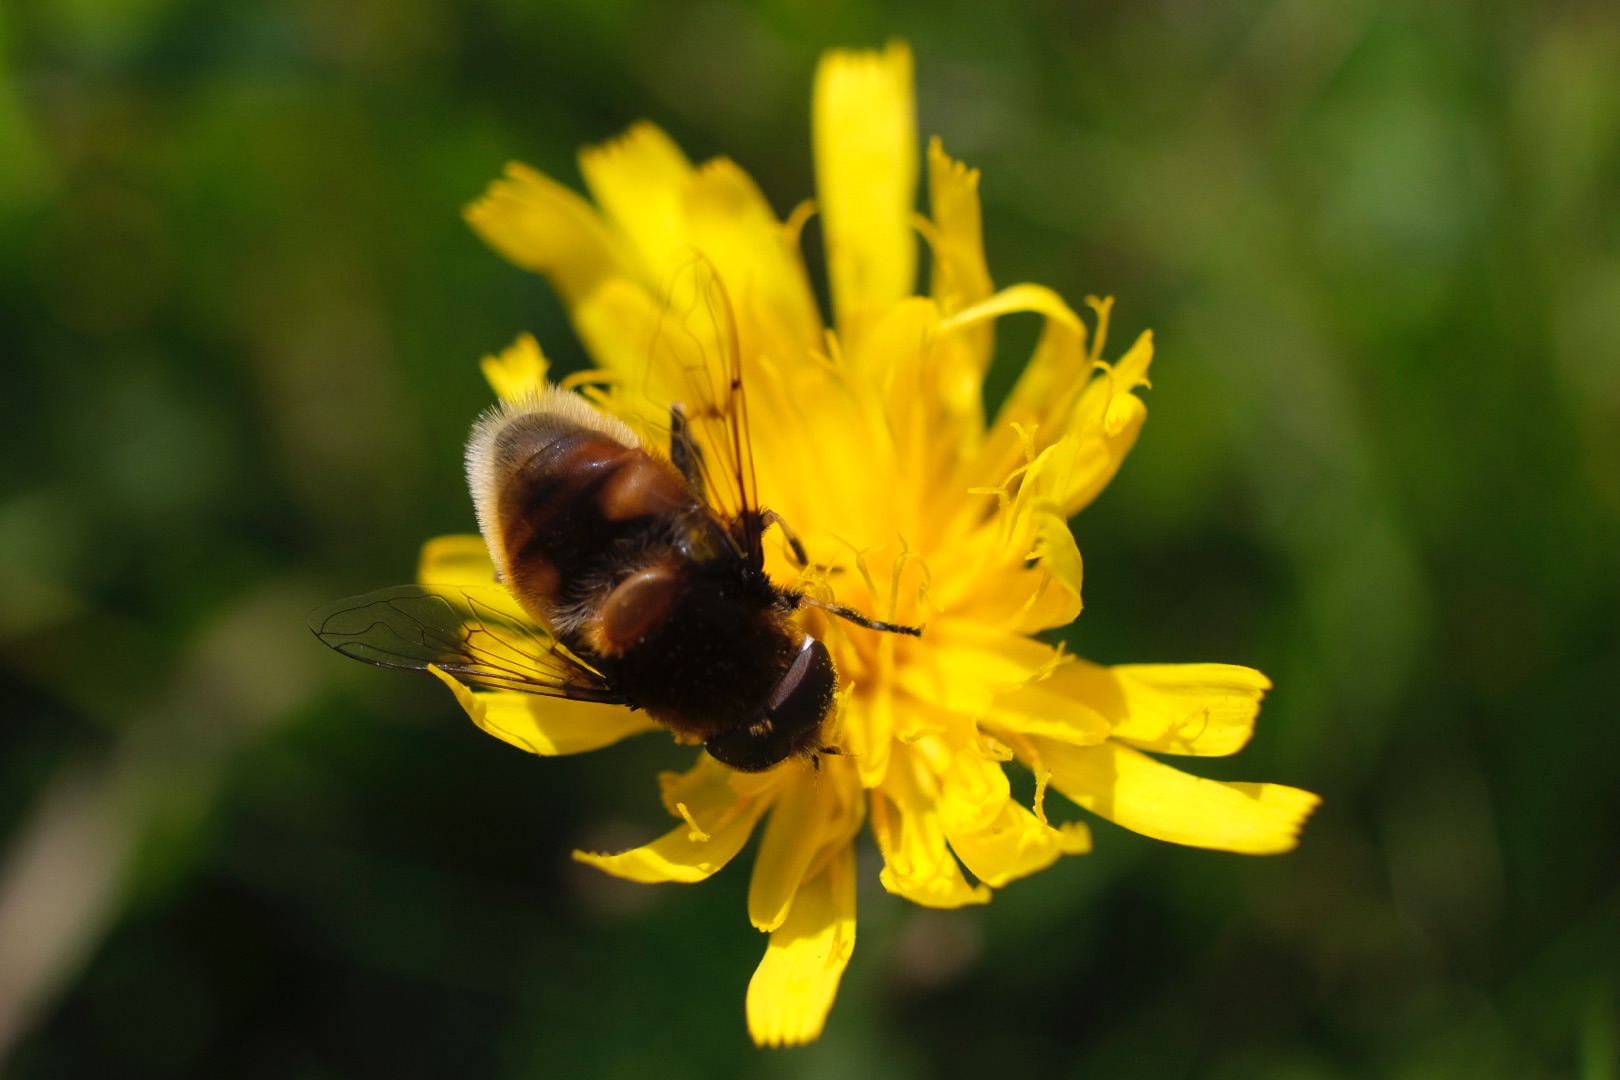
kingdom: Animalia
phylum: Arthropoda
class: Insecta
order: Diptera
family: Syrphidae
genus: Eristalis
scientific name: Eristalis intricaria
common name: Håret dyndflue
